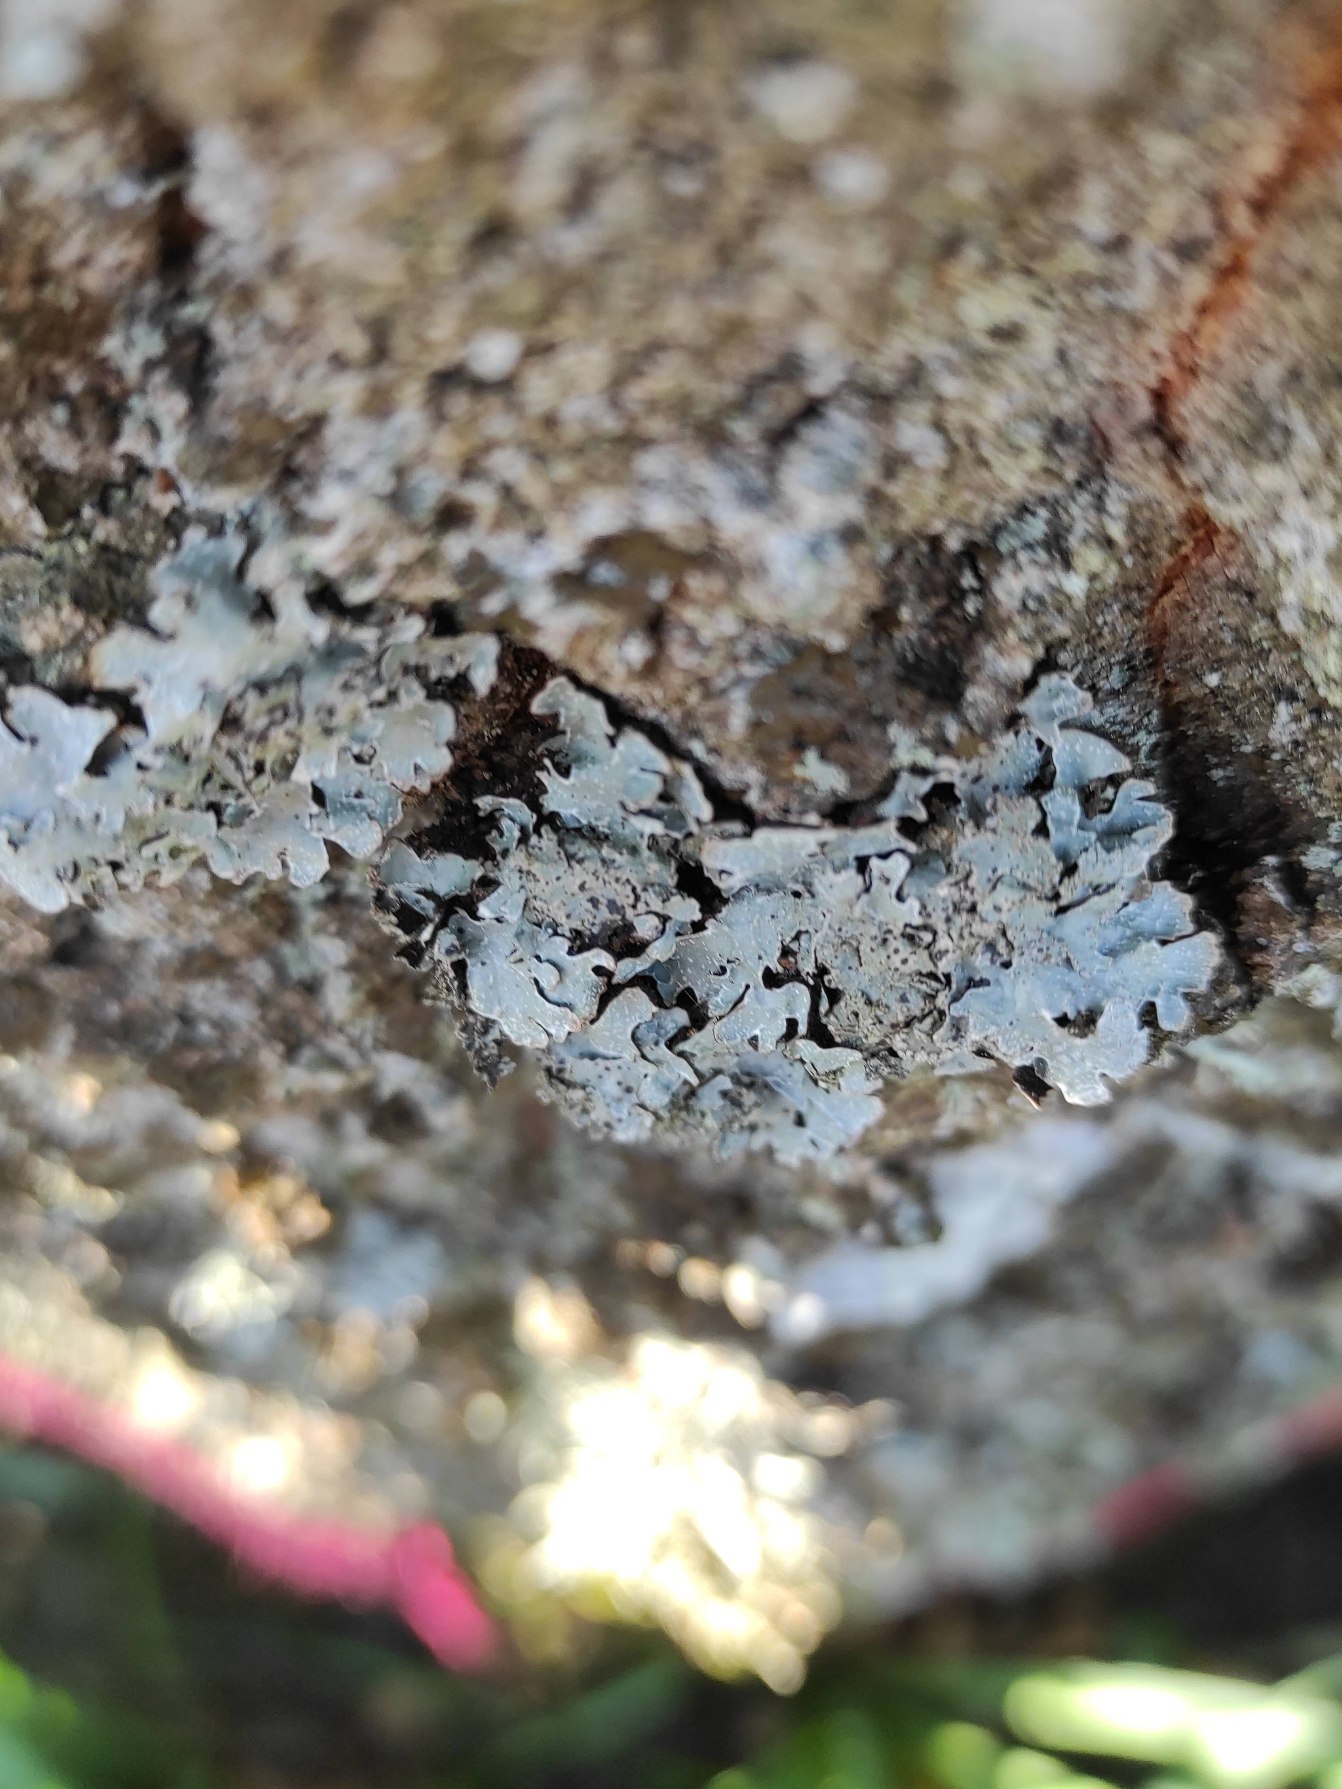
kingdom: Fungi
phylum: Ascomycota
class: Lecanoromycetes
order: Lecanorales
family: Parmeliaceae
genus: Parmelia
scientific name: Parmelia sulcata
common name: Rynket skållav
